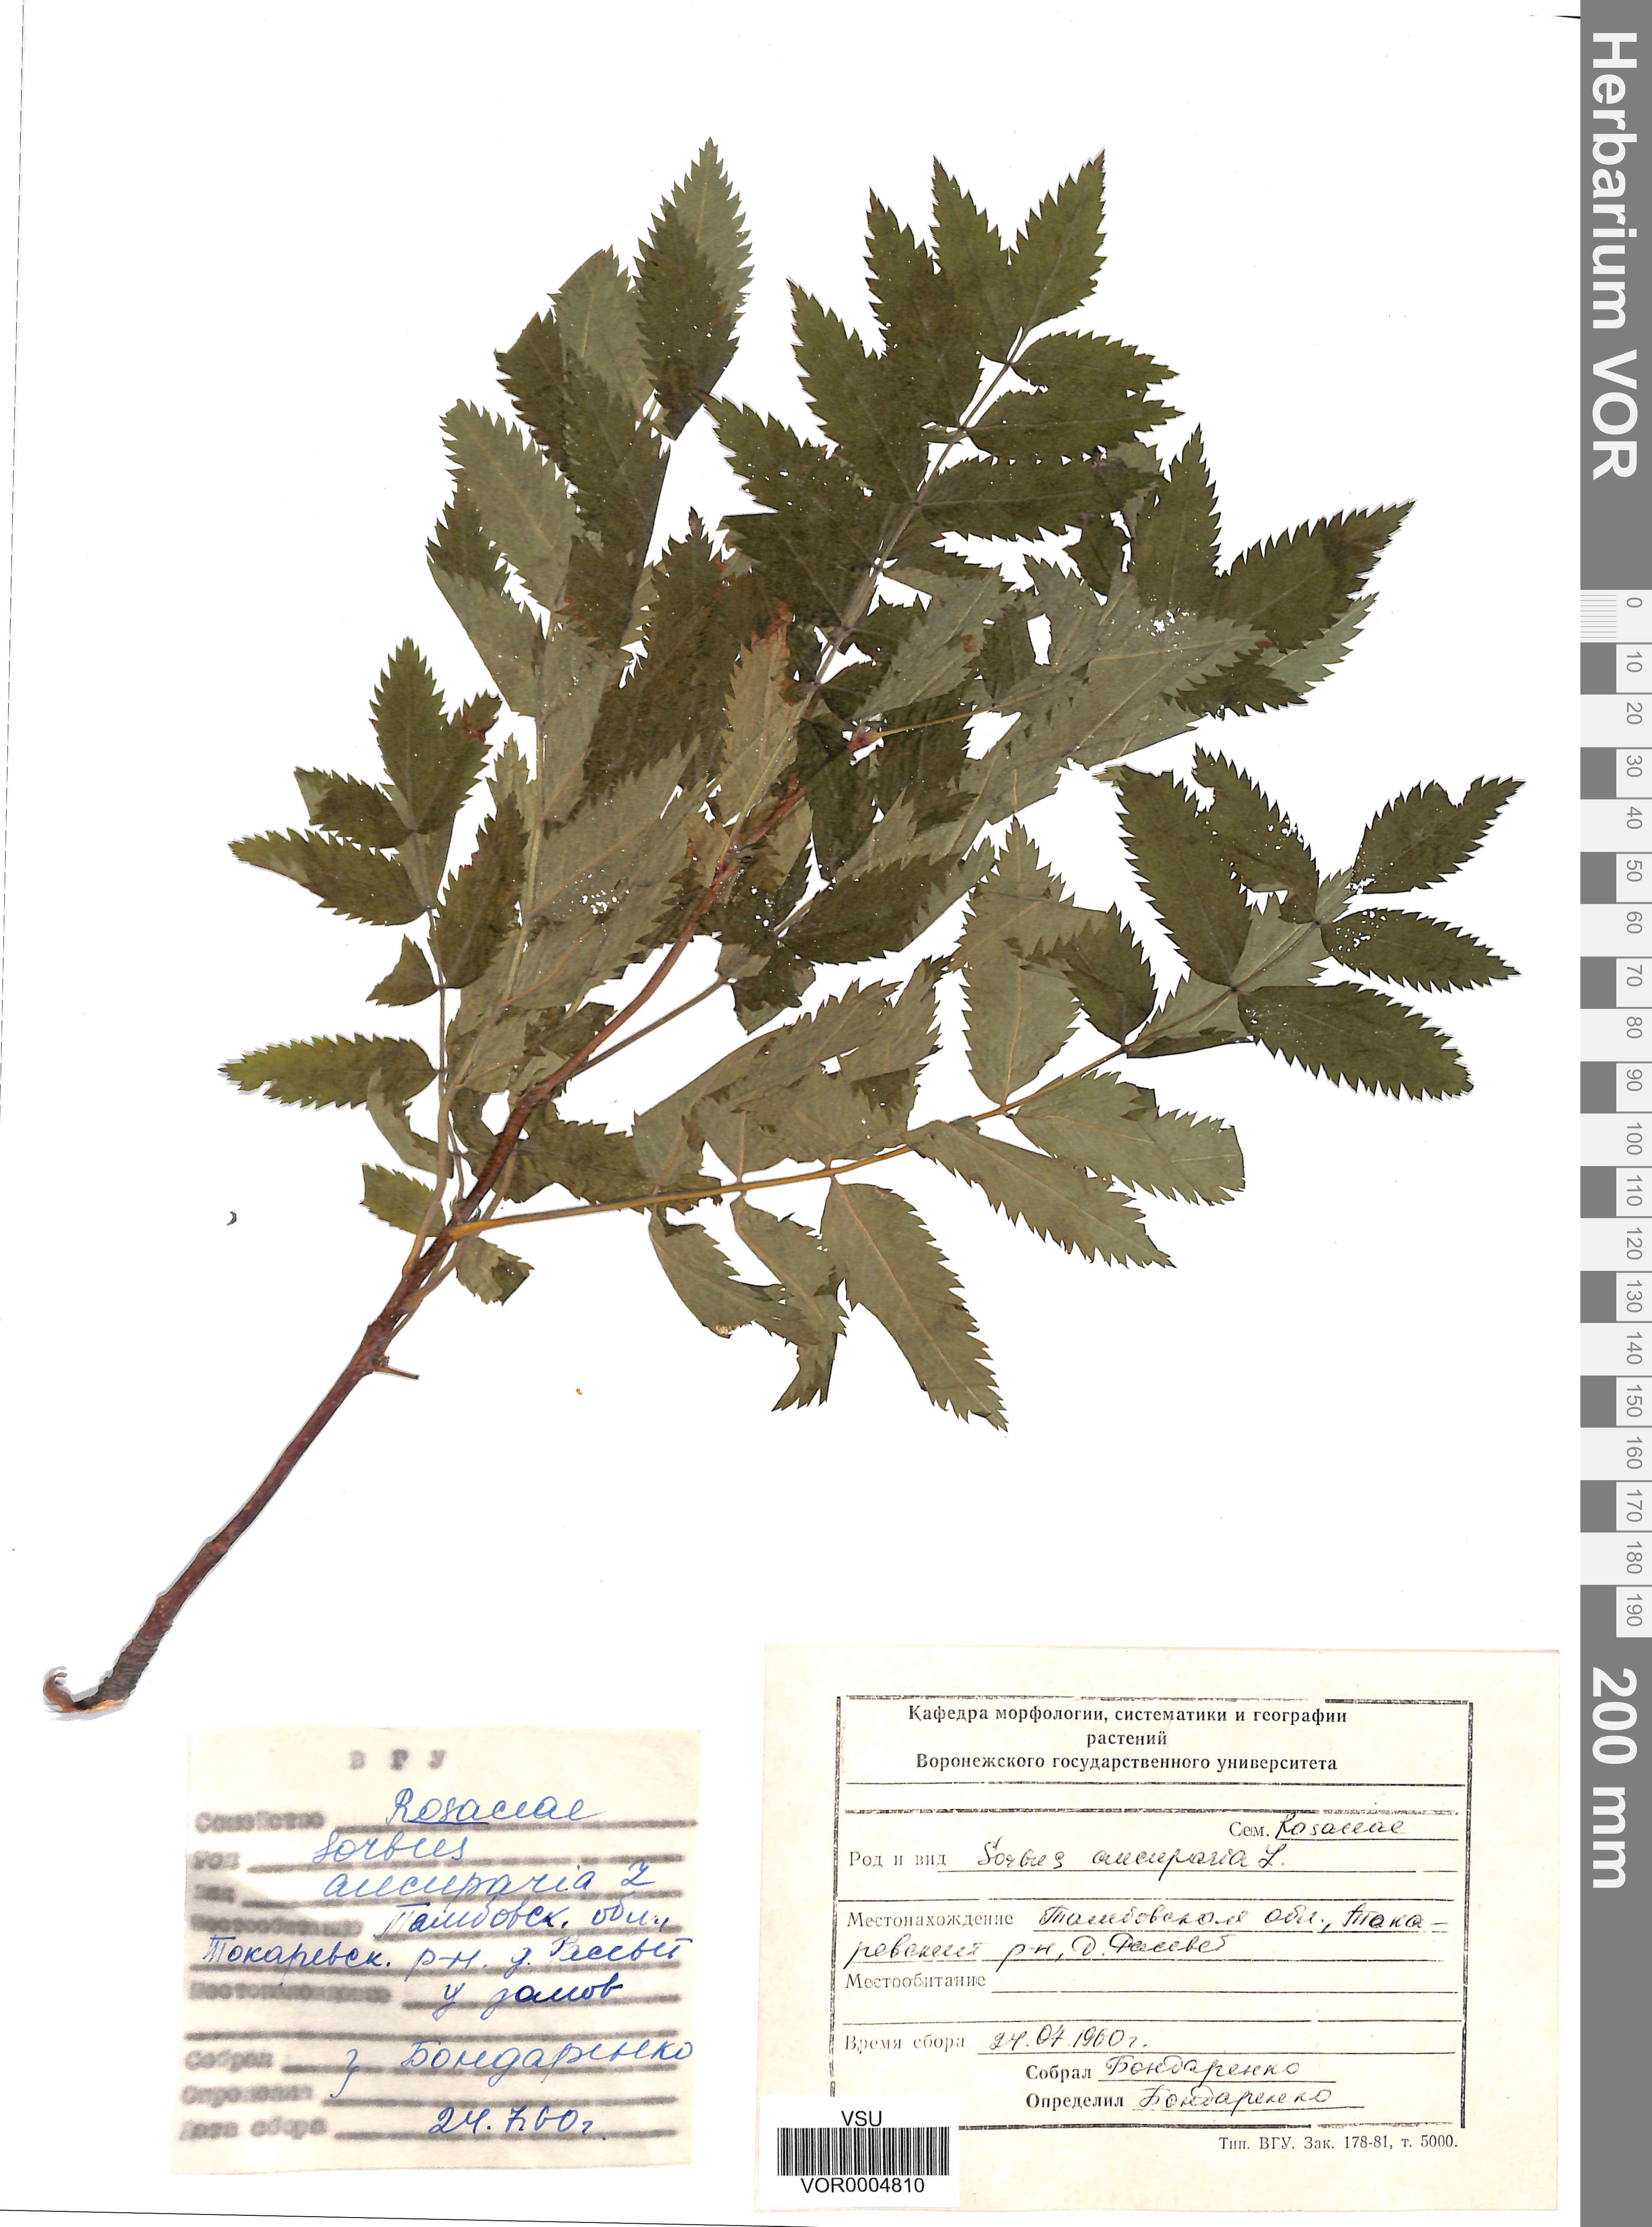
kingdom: Plantae
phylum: Tracheophyta
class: Magnoliopsida
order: Rosales
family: Rosaceae
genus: Sorbus
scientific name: Sorbus aucuparia
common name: Rowan
